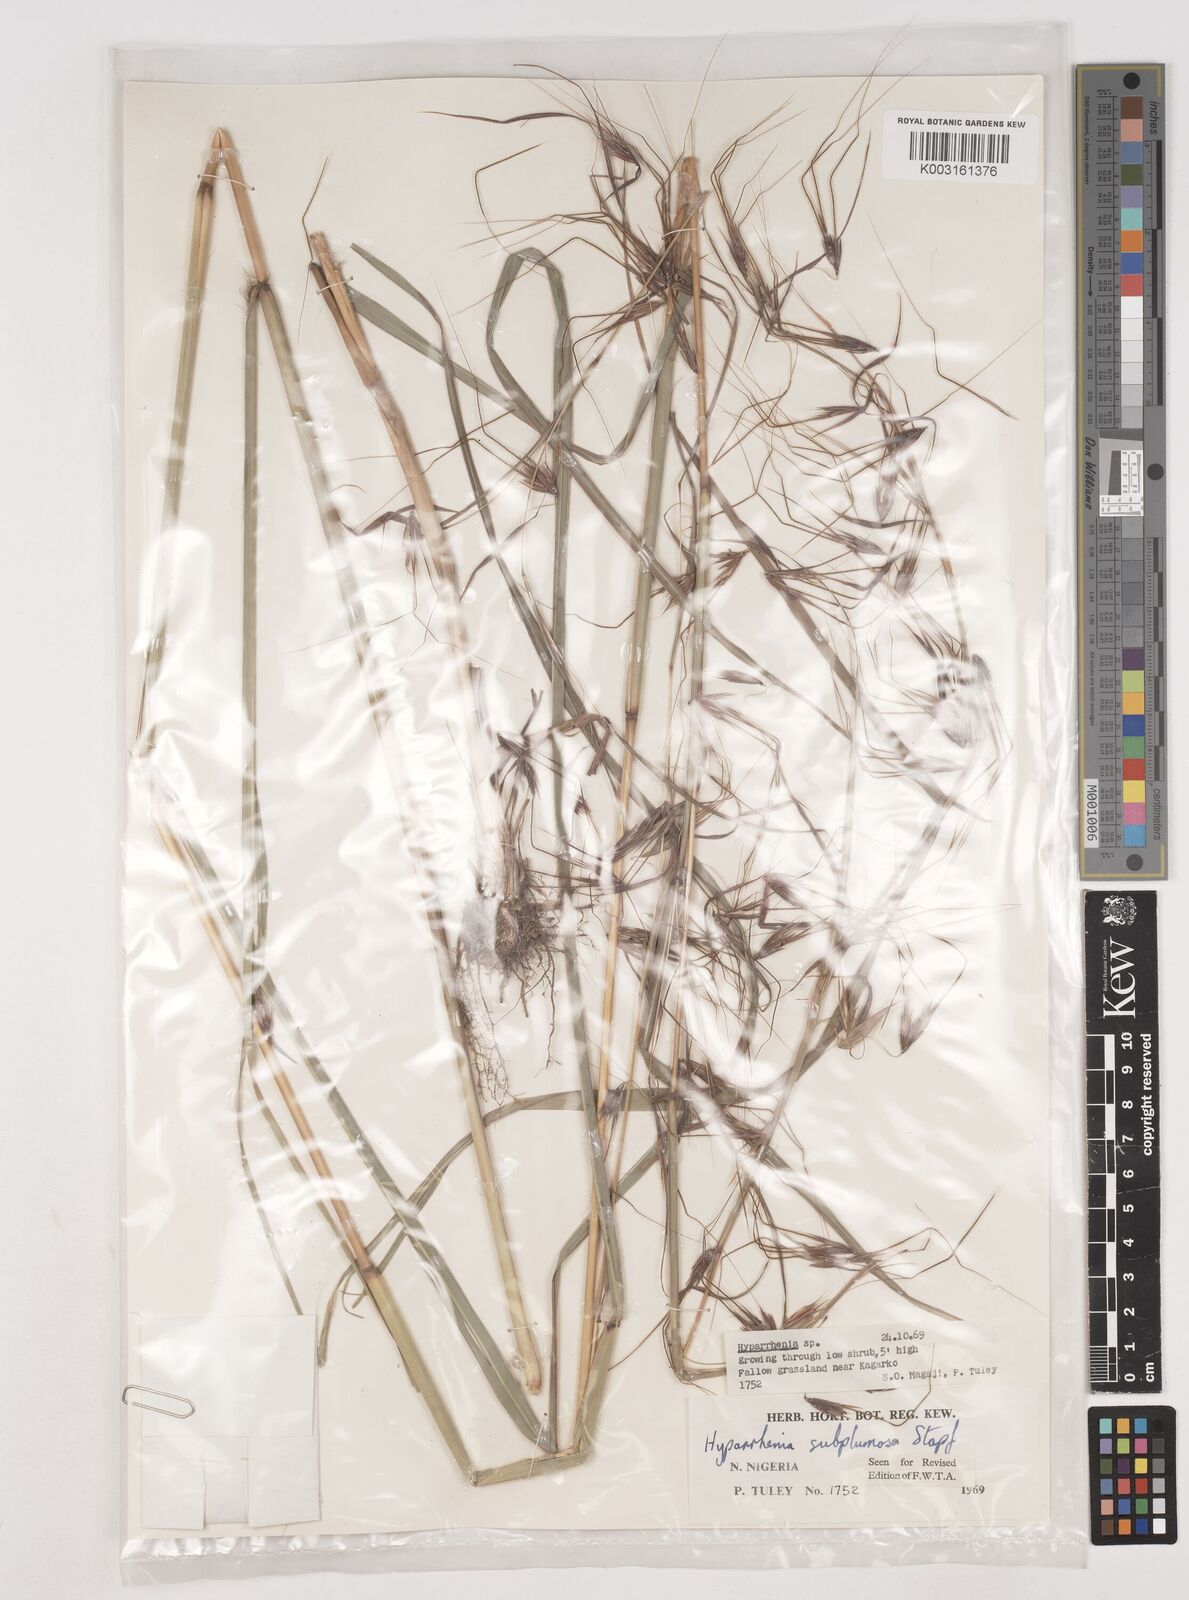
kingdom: Plantae
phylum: Tracheophyta
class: Liliopsida
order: Poales
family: Poaceae
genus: Hyparrhenia
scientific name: Hyparrhenia subplumosa
